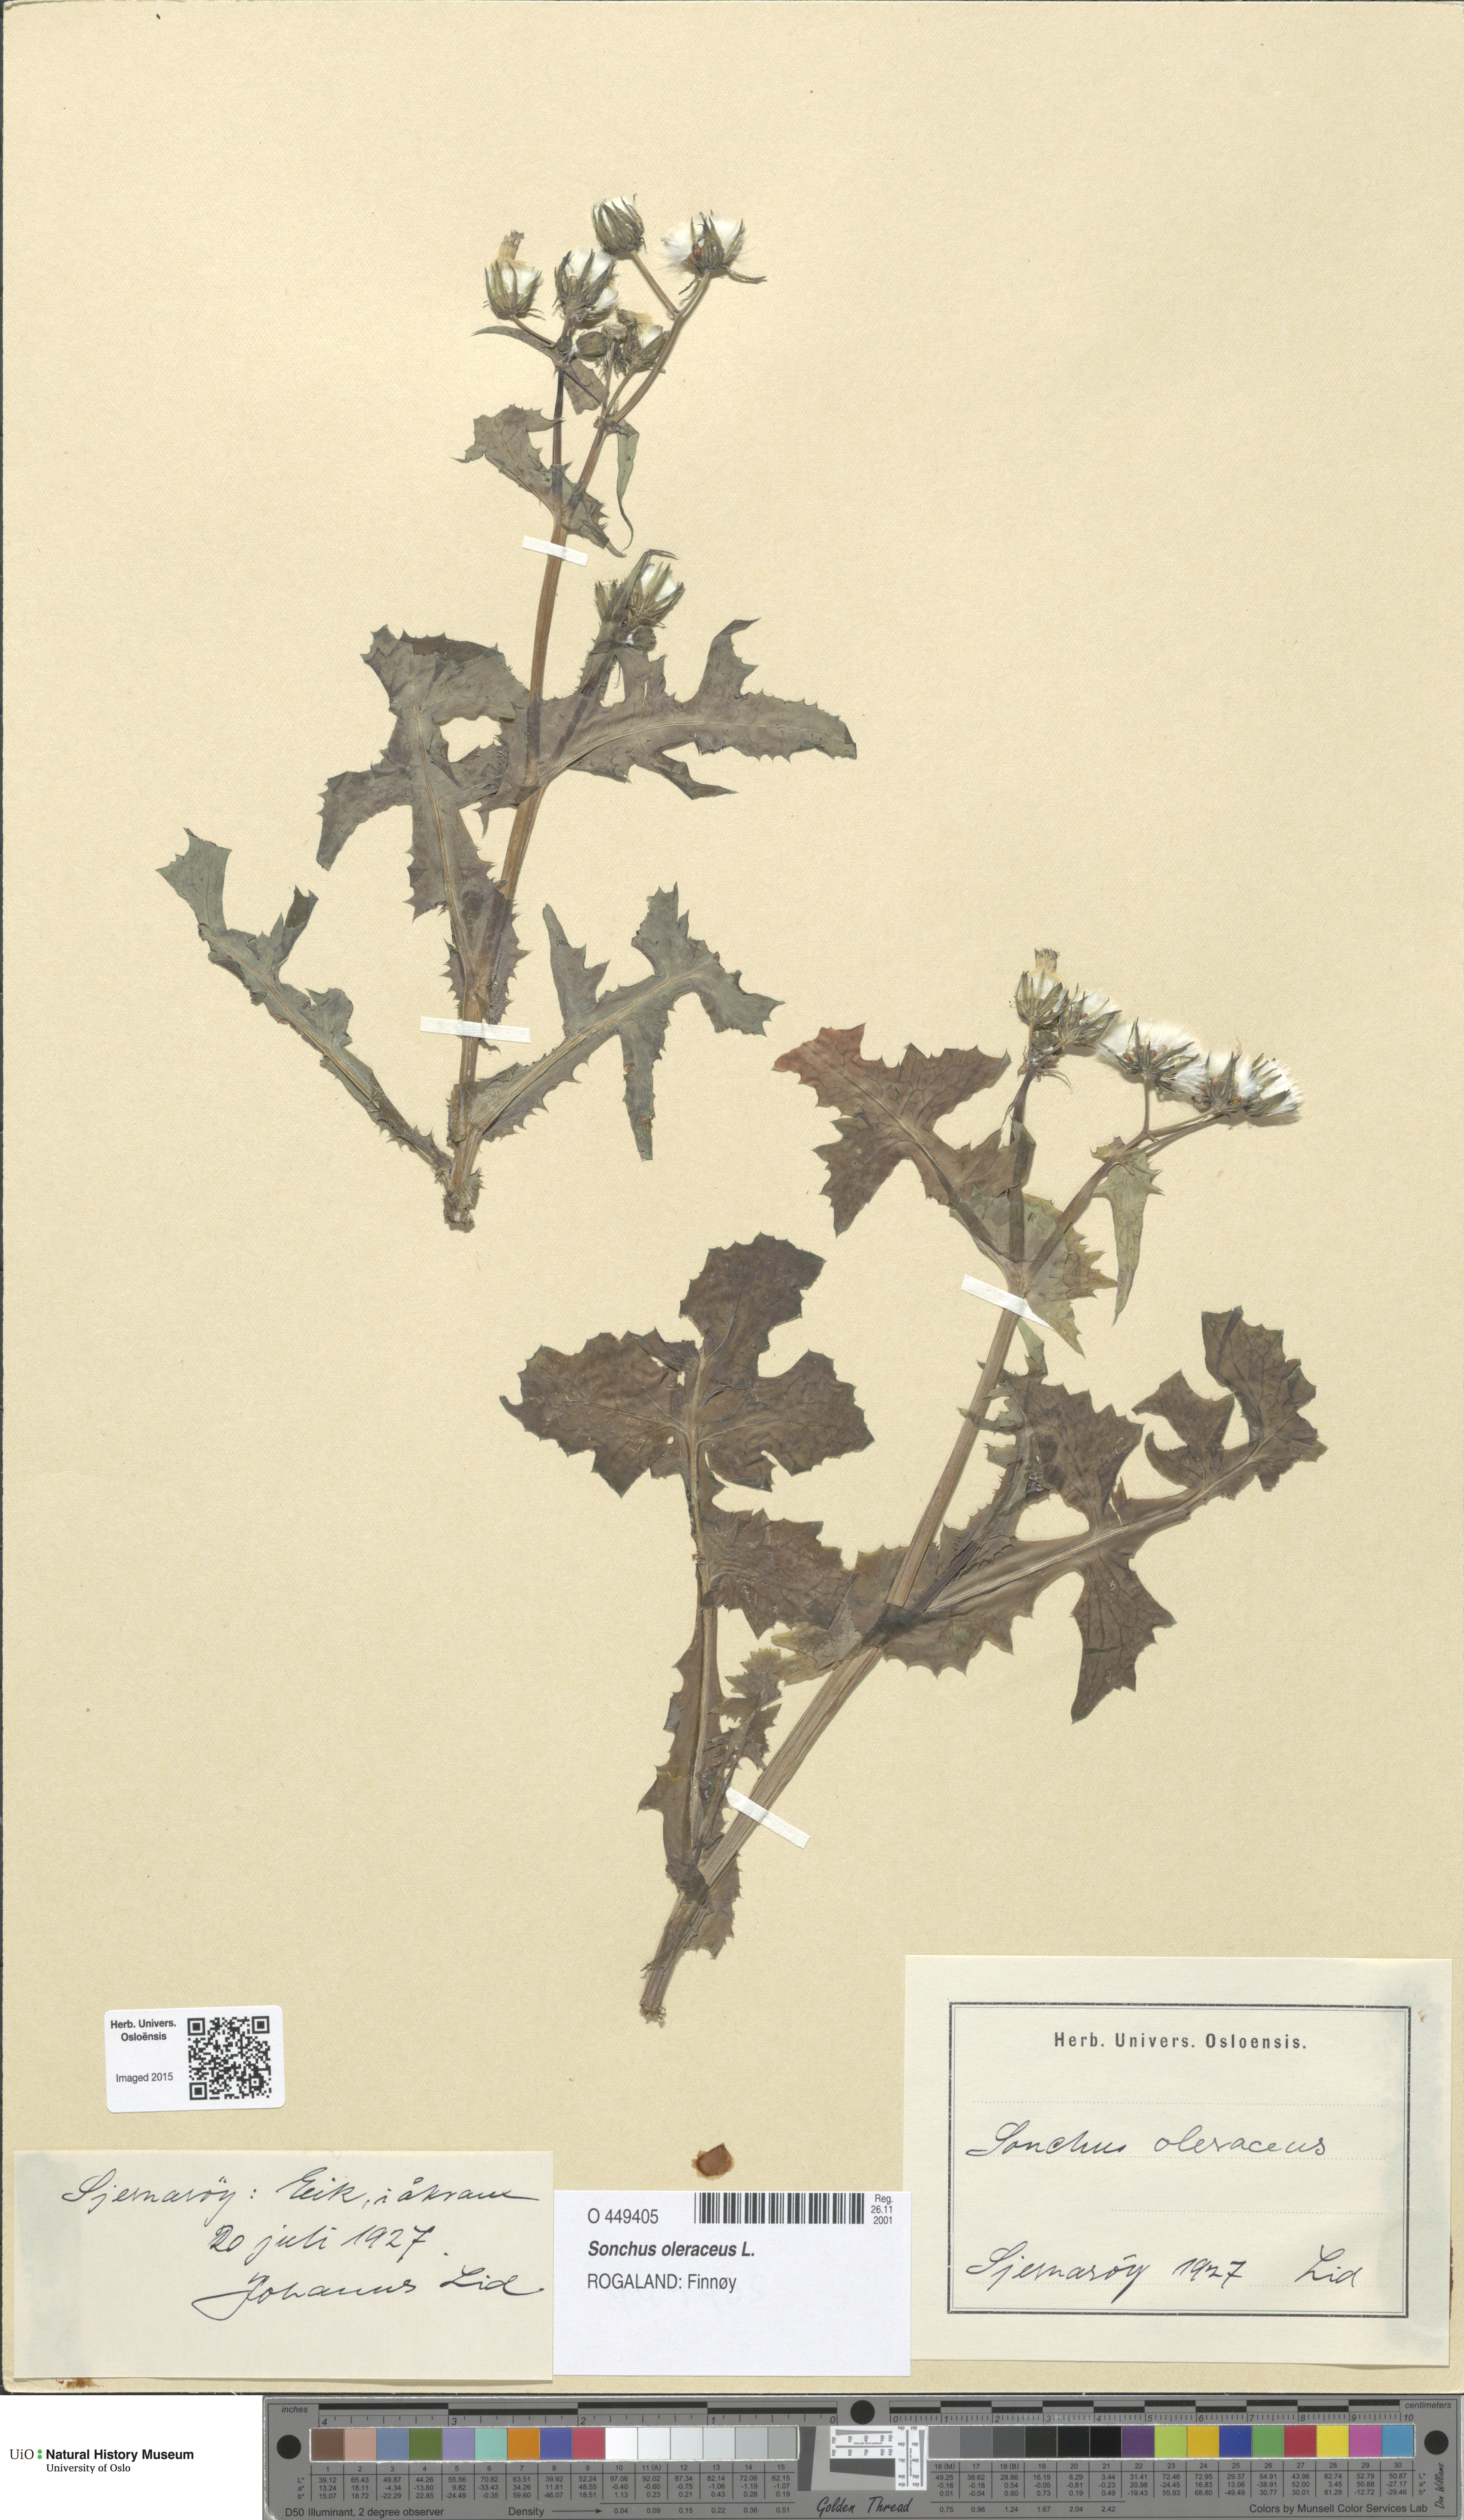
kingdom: Plantae
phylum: Tracheophyta
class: Magnoliopsida
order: Asterales
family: Asteraceae
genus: Sonchus
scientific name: Sonchus oleraceus
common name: Common sowthistle
